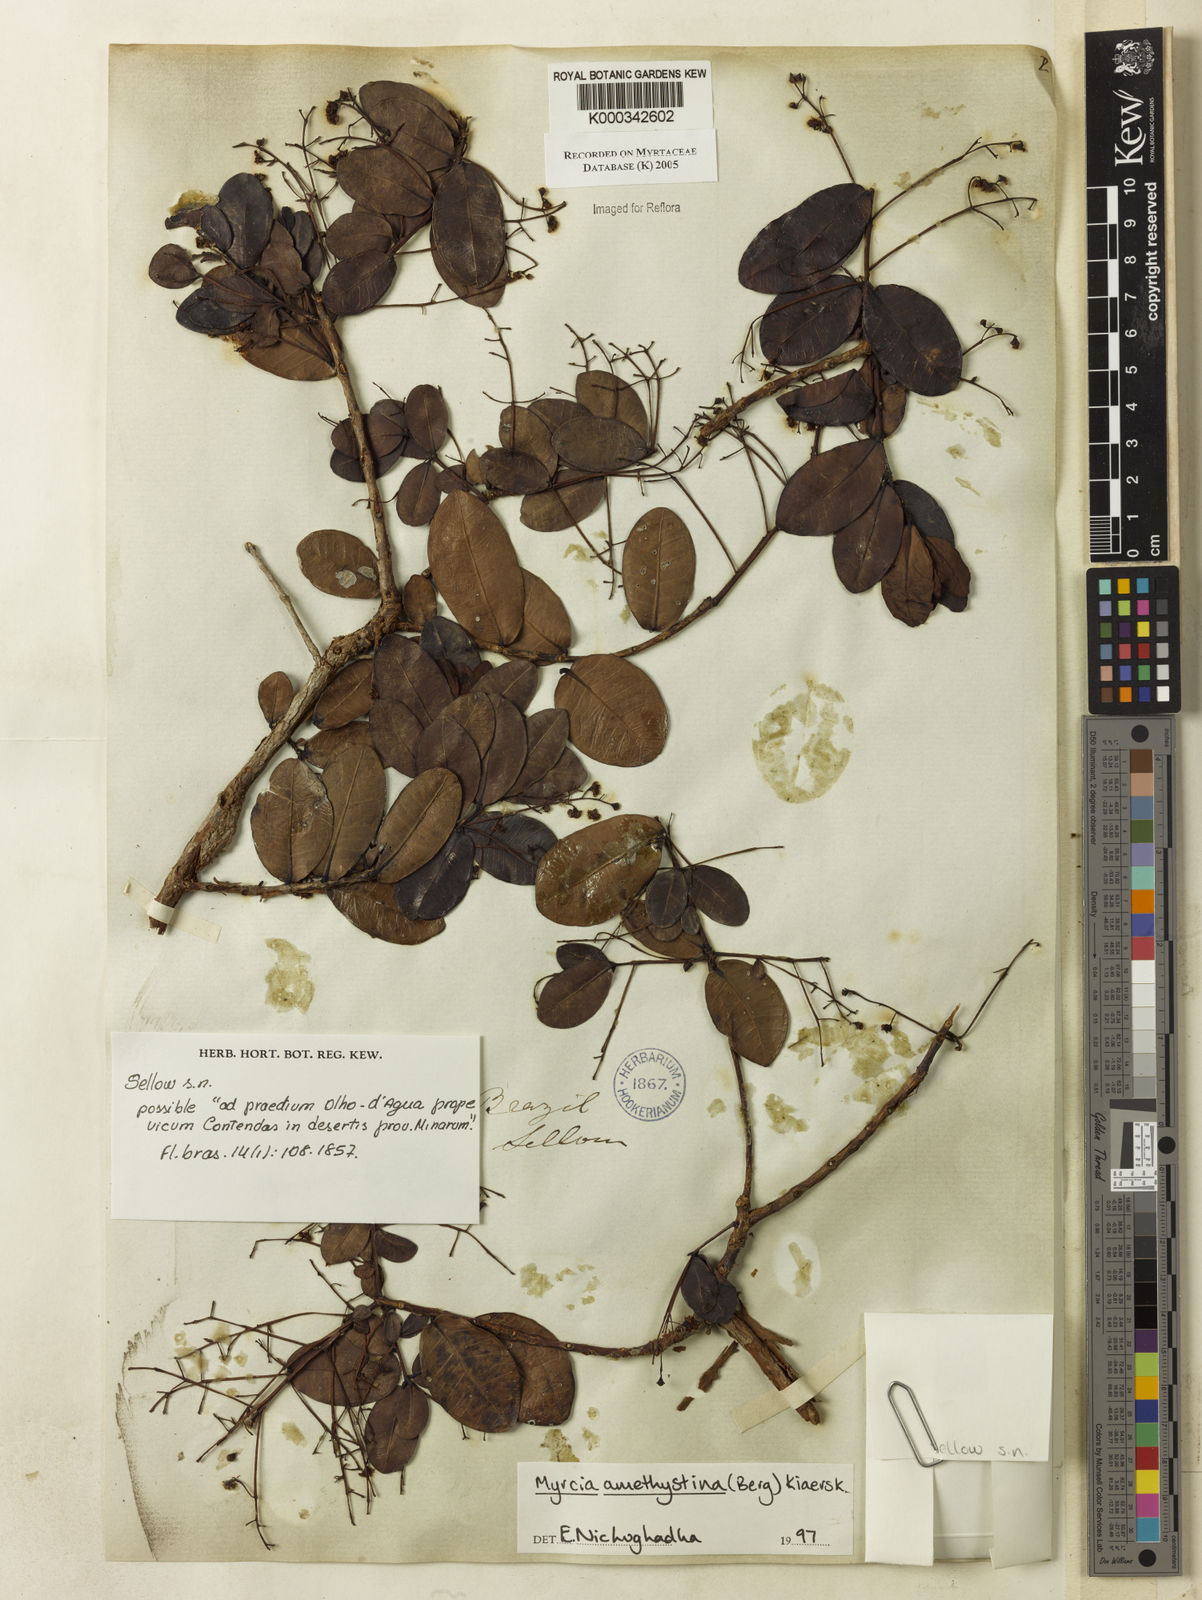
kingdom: Plantae
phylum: Tracheophyta
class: Magnoliopsida
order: Myrtales
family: Myrtaceae
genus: Myrcia
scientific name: Myrcia amethystina
